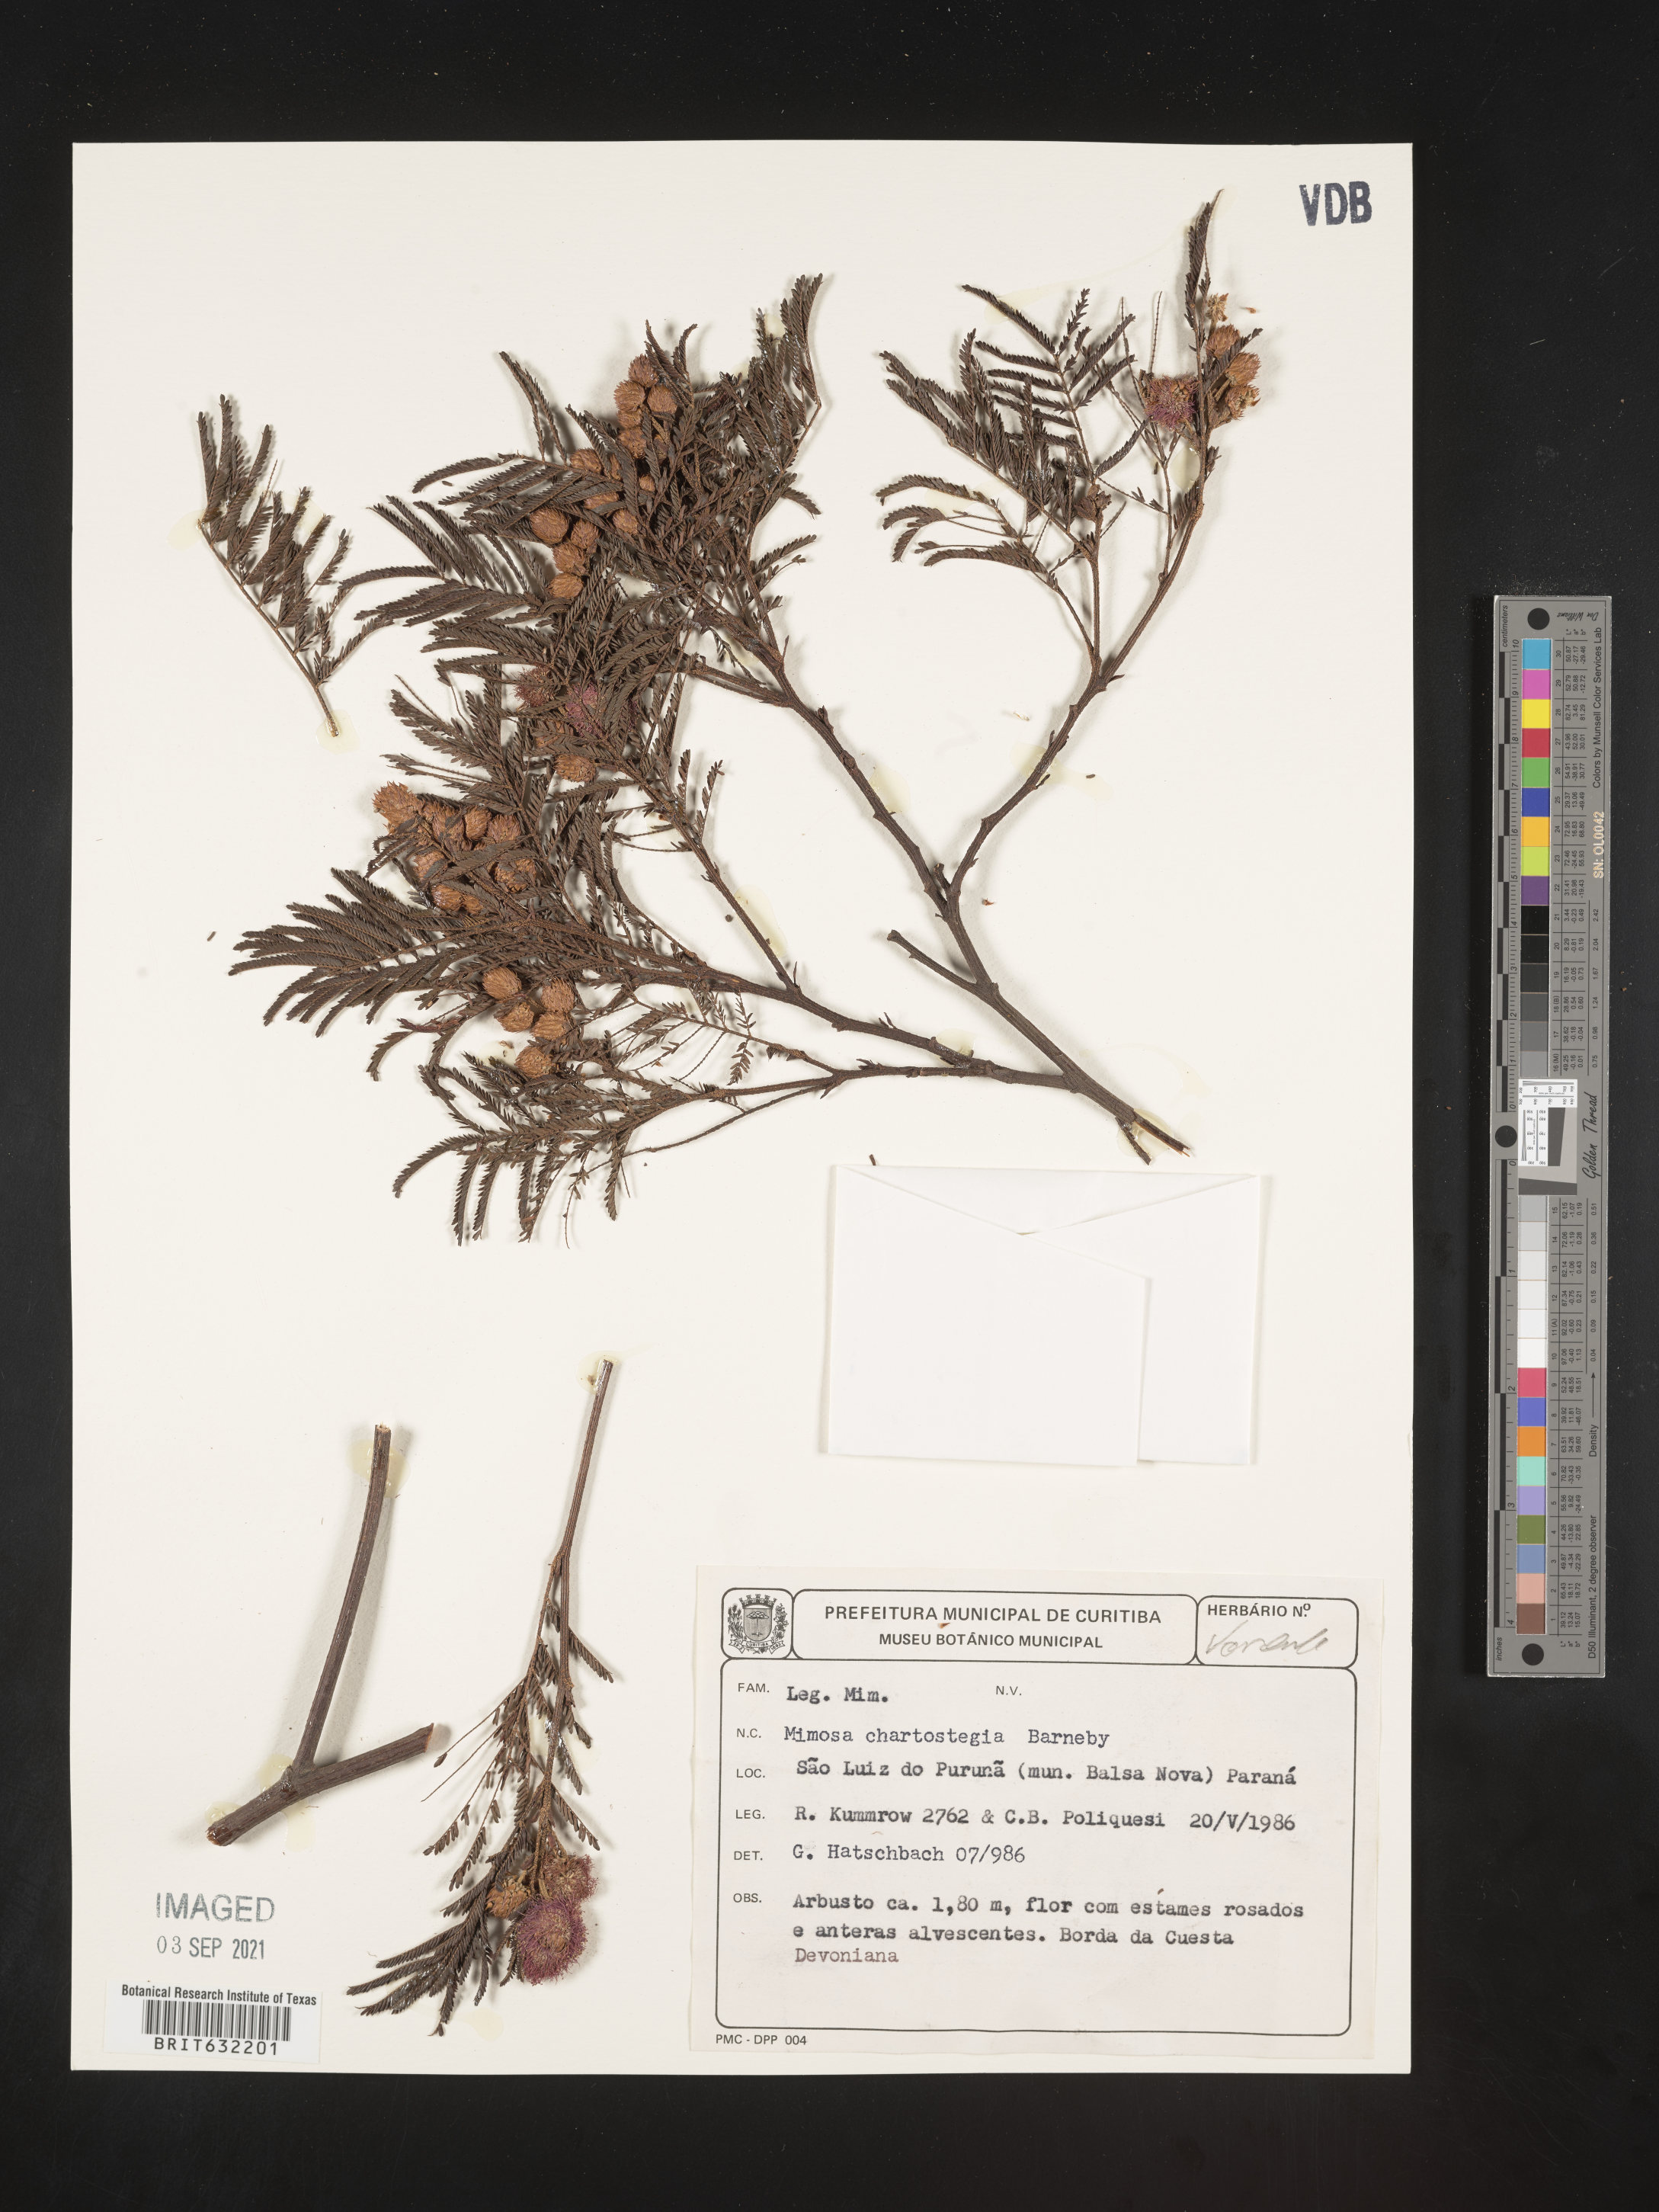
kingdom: Plantae
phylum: Tracheophyta
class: Magnoliopsida
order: Fabales
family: Fabaceae
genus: Mimosa
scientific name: Mimosa
